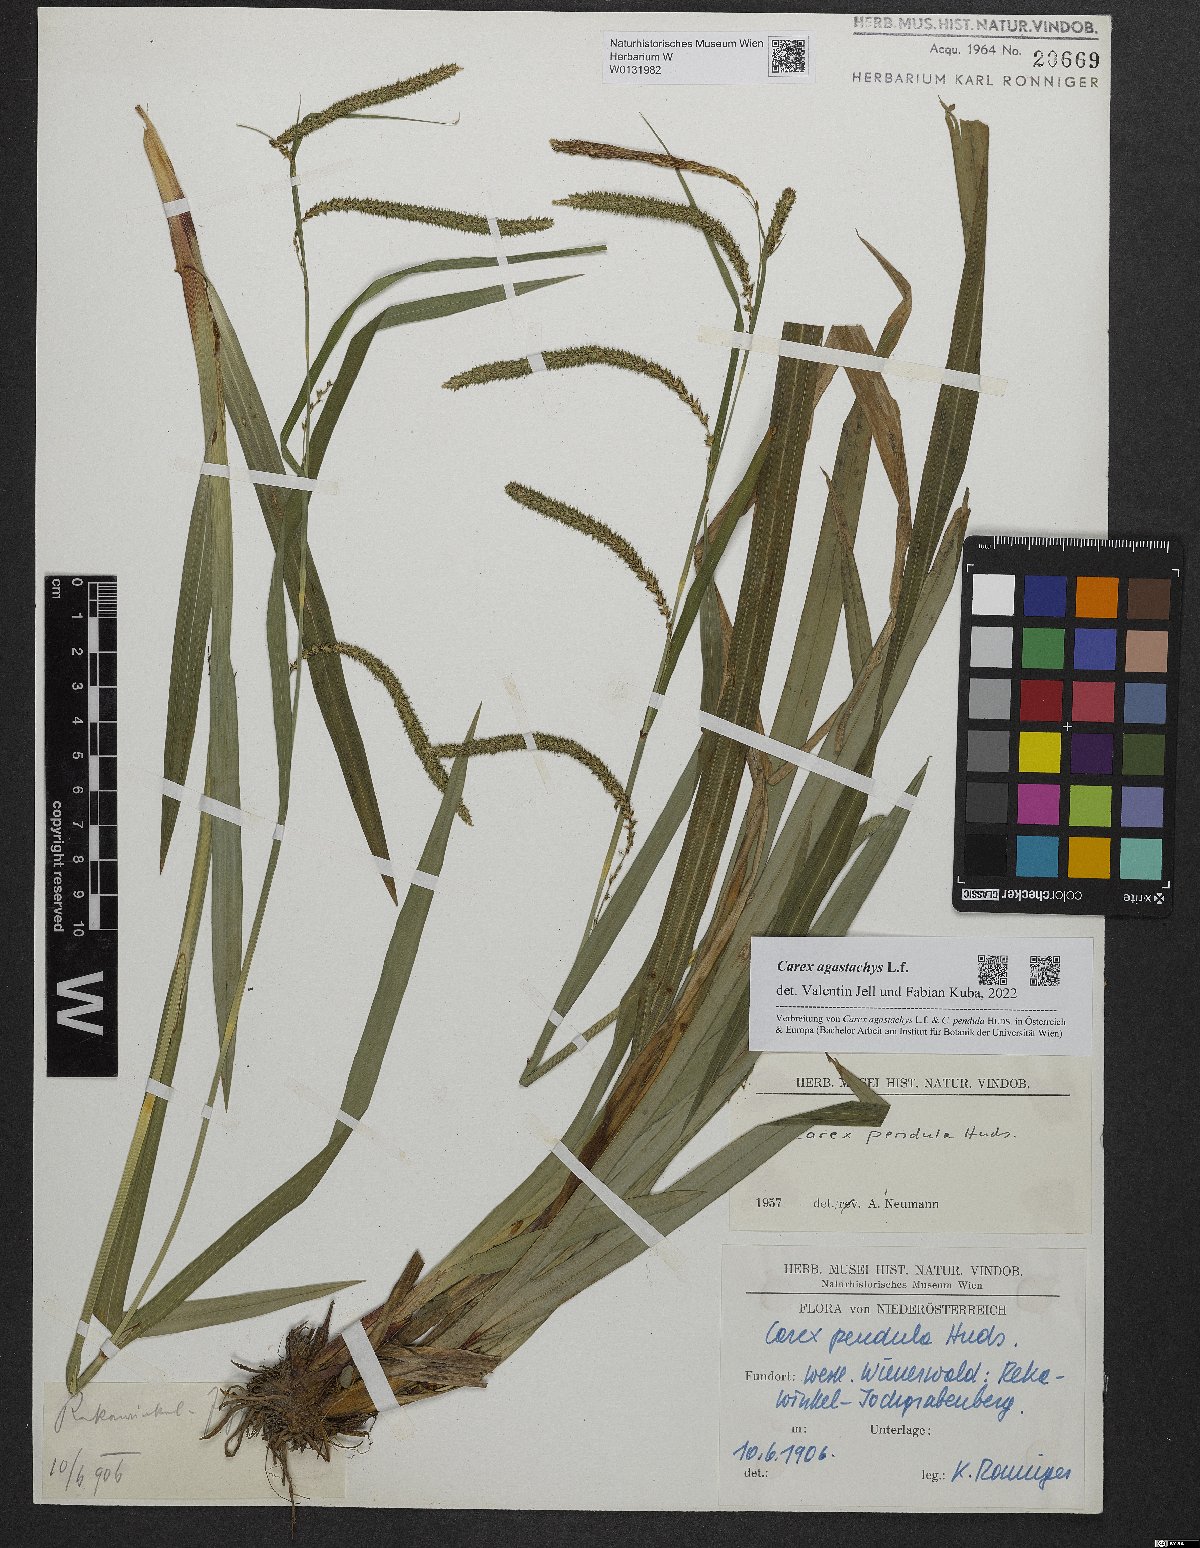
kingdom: Plantae
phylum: Tracheophyta
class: Liliopsida
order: Poales
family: Cyperaceae
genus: Carex
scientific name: Carex agastachys
